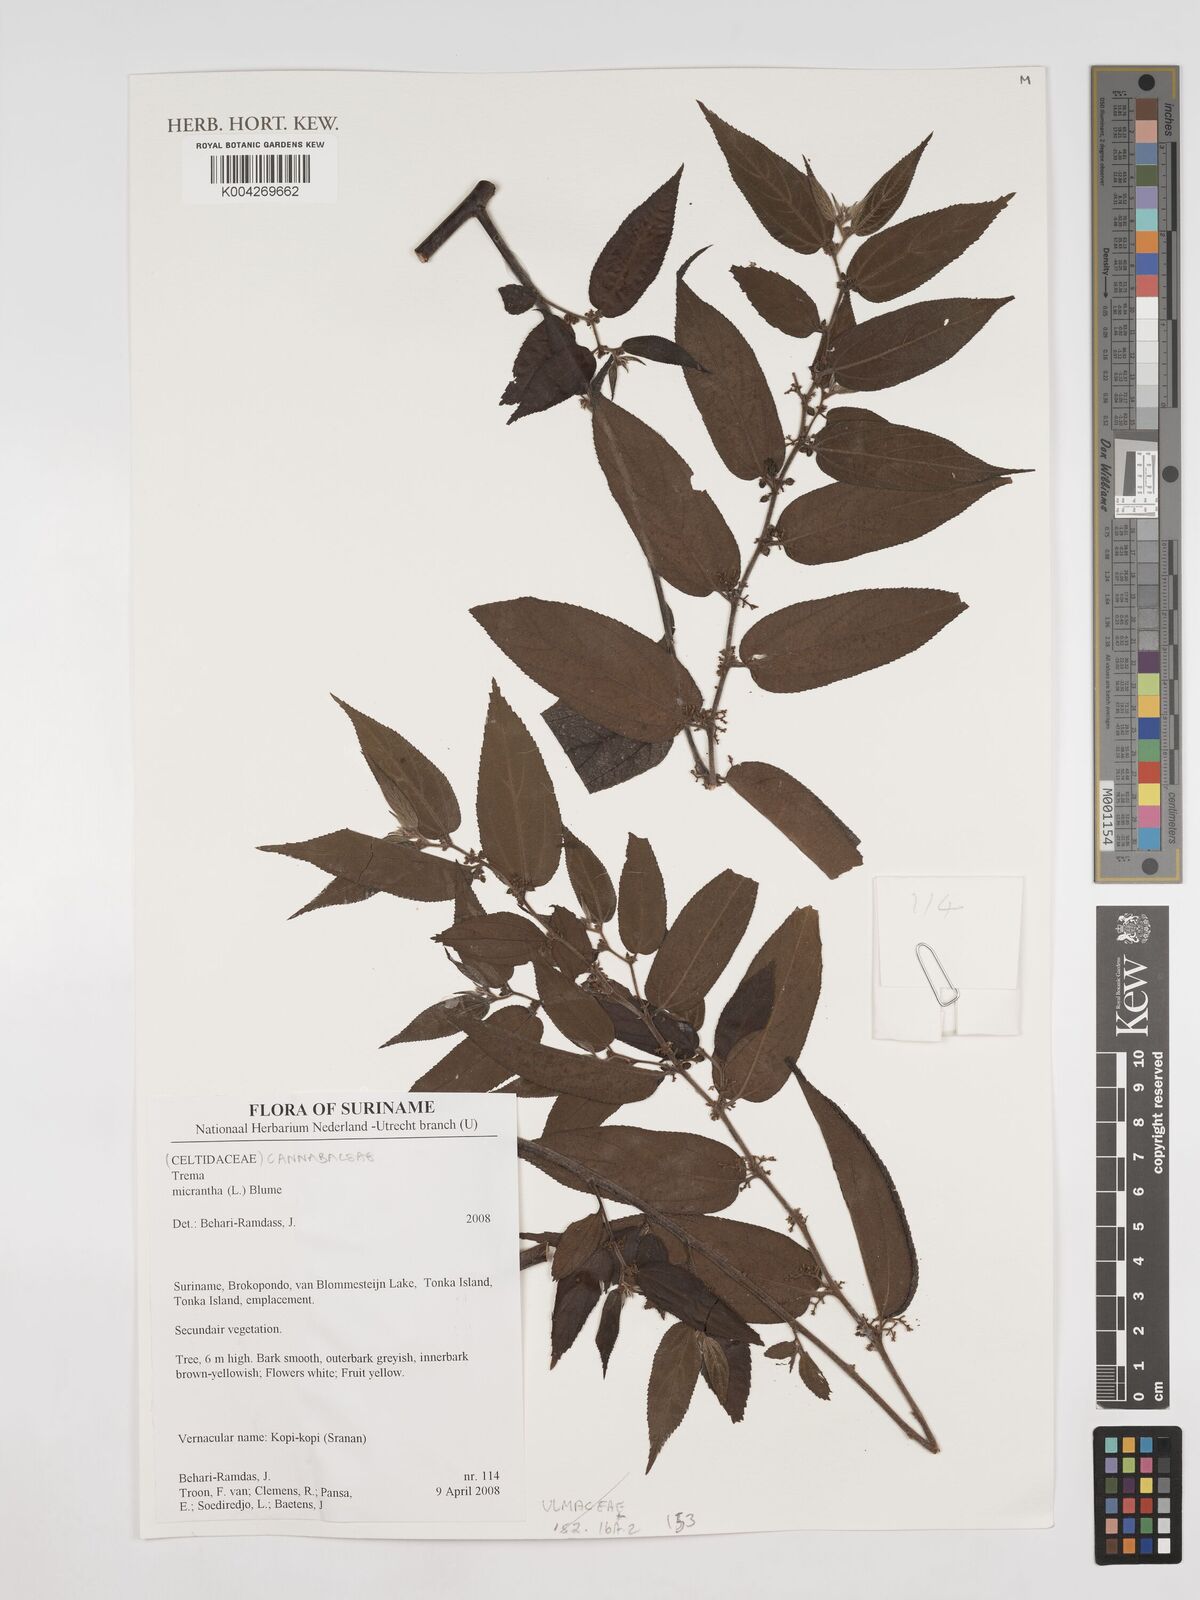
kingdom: Plantae
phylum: Tracheophyta
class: Magnoliopsida
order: Rosales
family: Cannabaceae
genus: Trema
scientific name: Trema micranthum
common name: Jamaican nettletree
